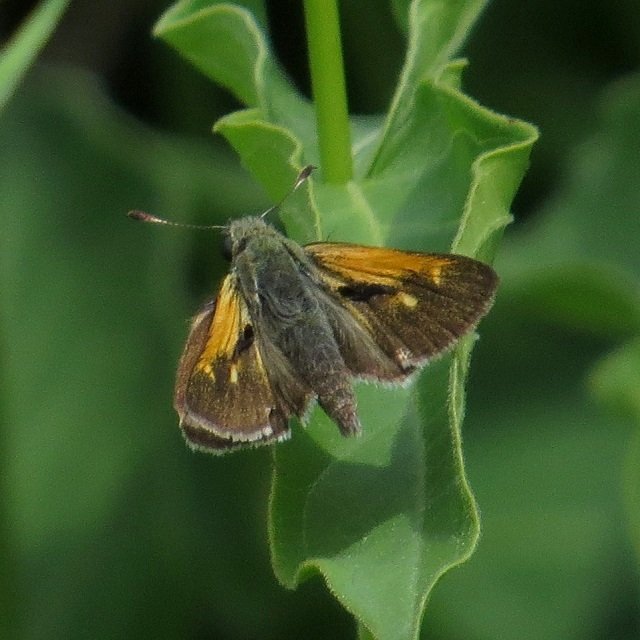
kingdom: Animalia
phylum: Arthropoda
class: Insecta
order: Lepidoptera
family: Hesperiidae
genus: Polites
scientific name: Polites themistocles
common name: Tawny-edged Skipper
